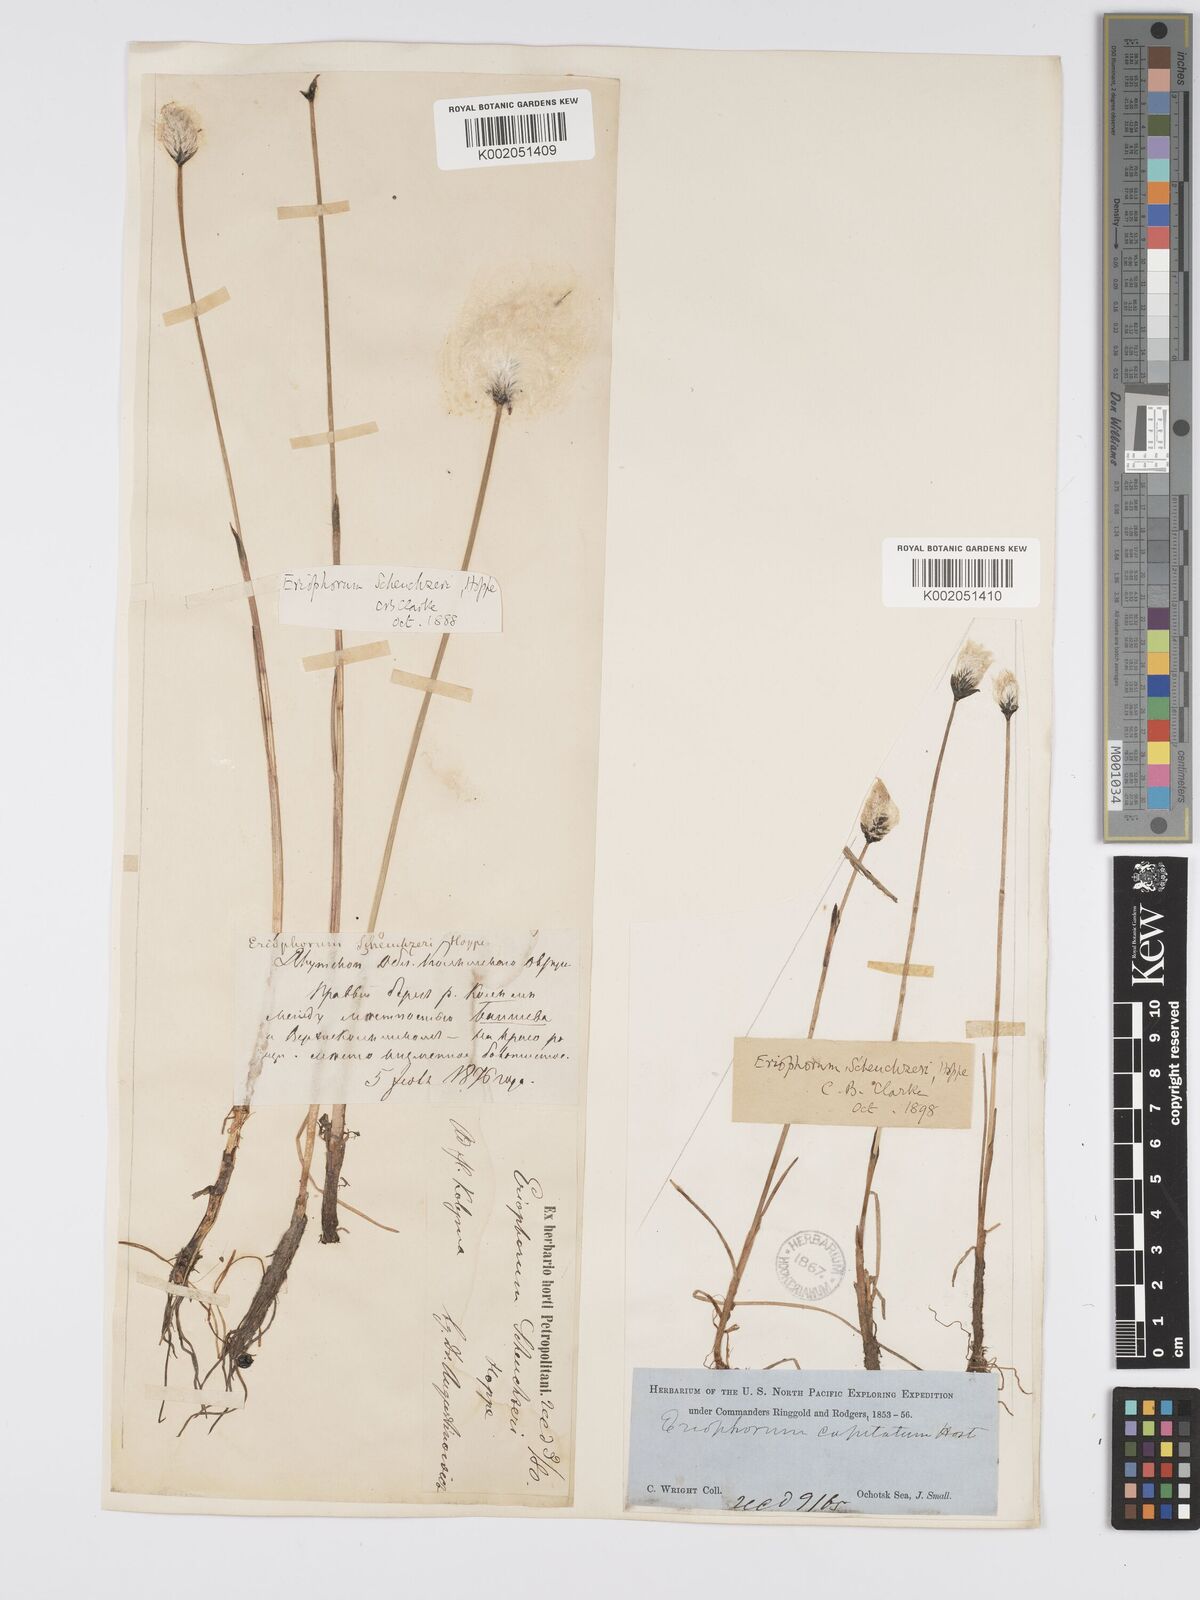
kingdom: Plantae
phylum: Tracheophyta
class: Liliopsida
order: Poales
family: Cyperaceae
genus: Eriophorum
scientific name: Eriophorum scheuchzeri
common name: Scheuchzer's cottongrass
